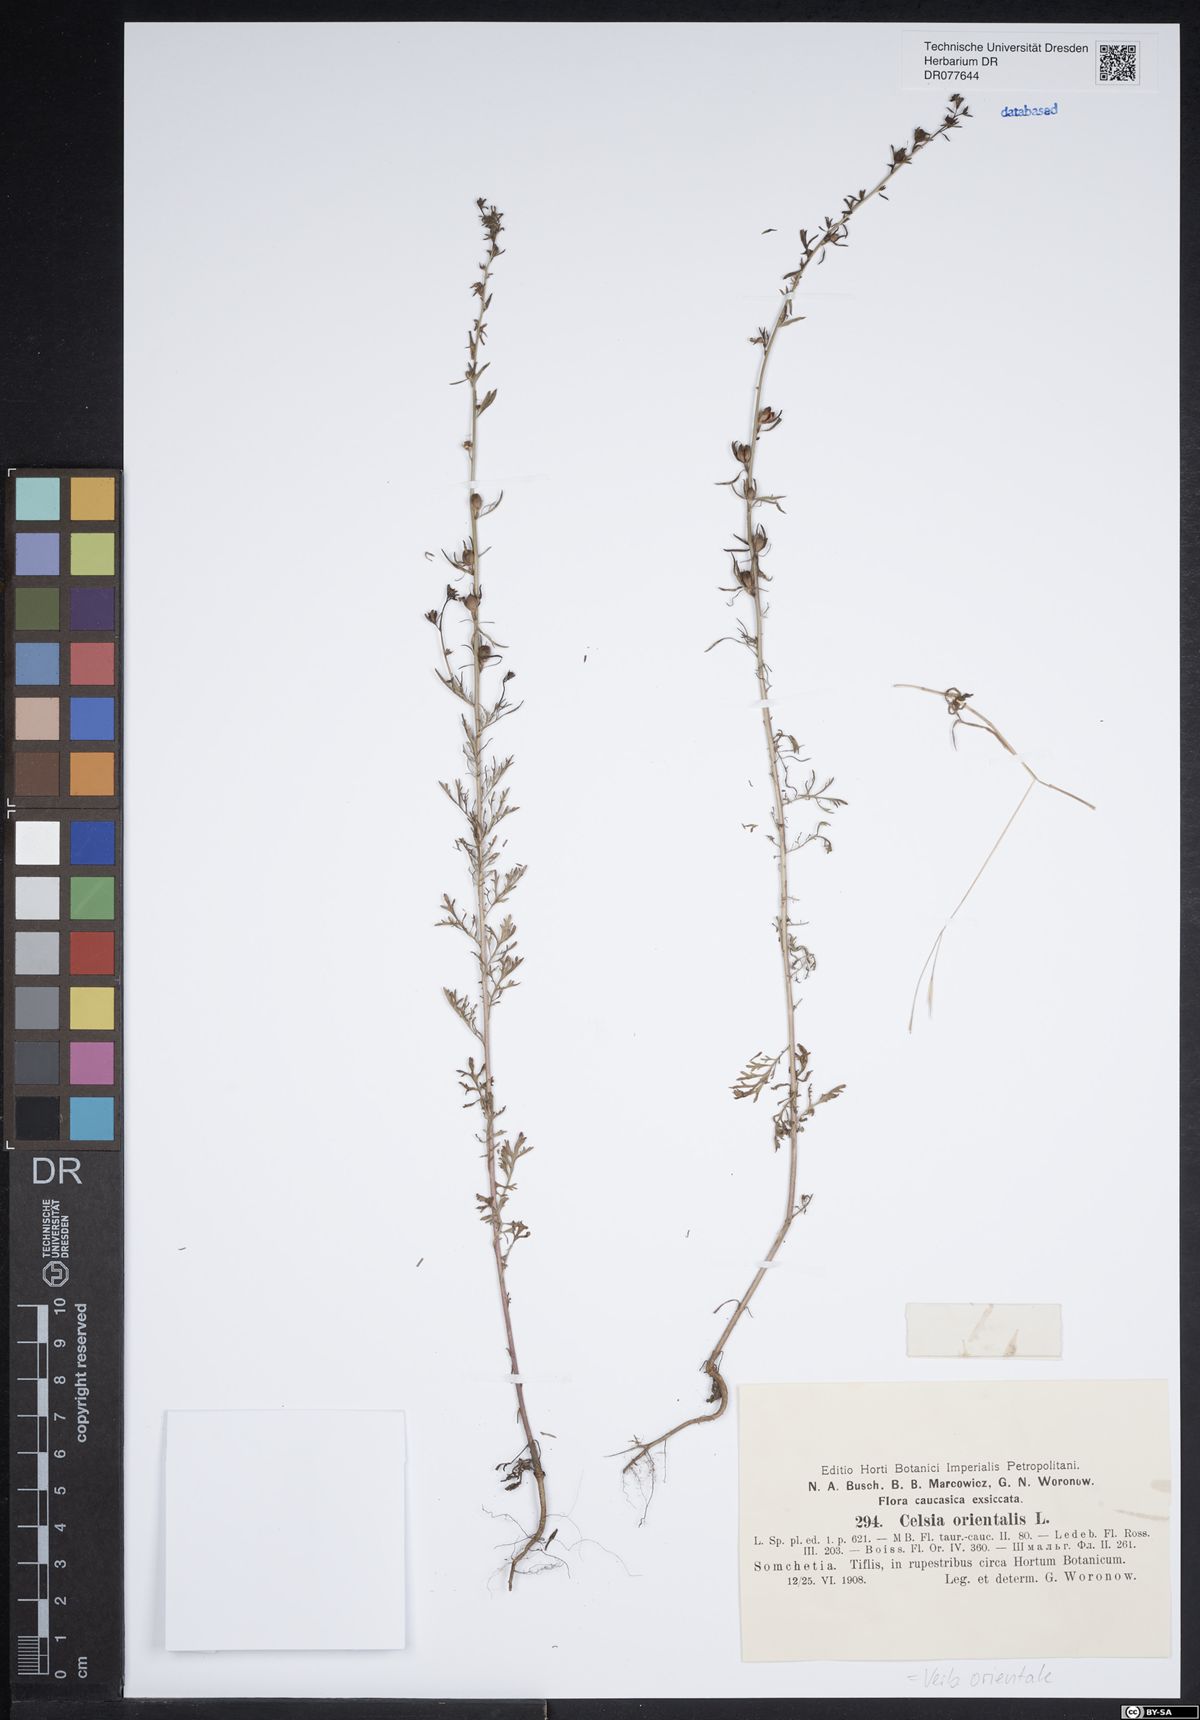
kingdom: Plantae
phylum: Tracheophyta
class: Magnoliopsida
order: Lamiales
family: Scrophulariaceae
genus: Verbascum
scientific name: Verbascum orientale
